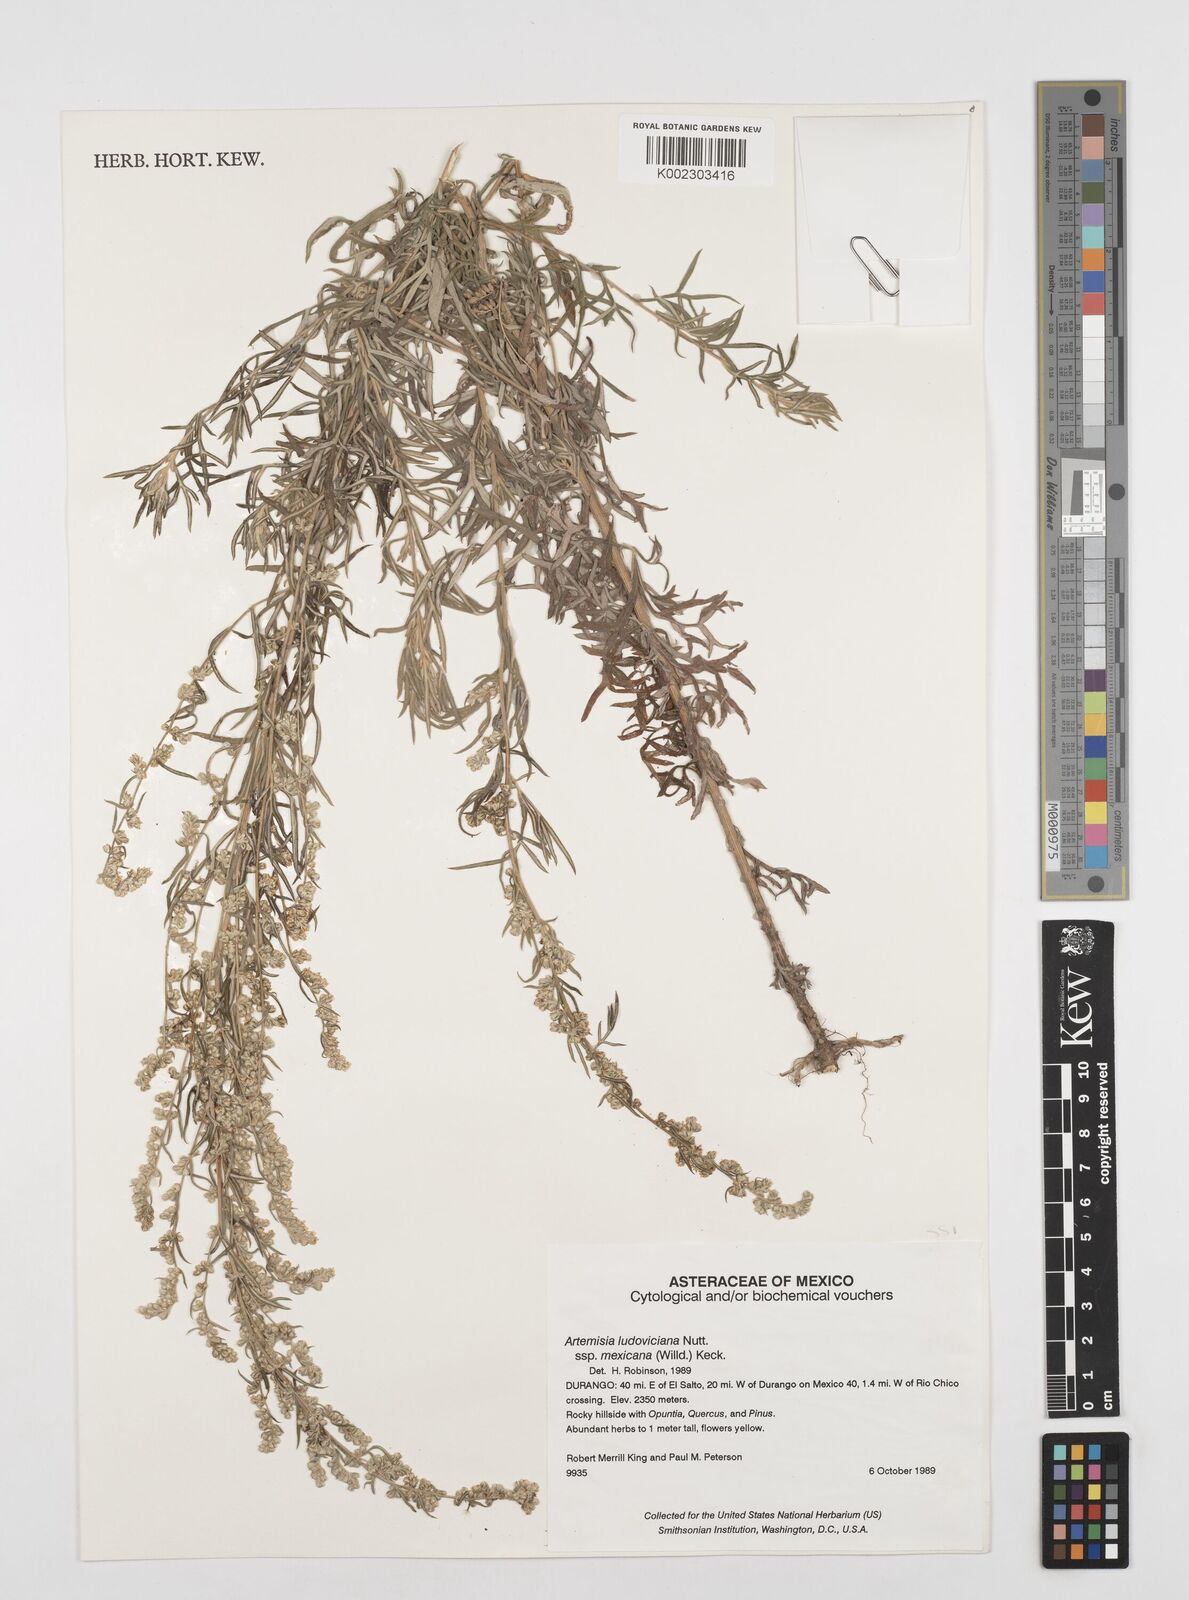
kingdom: Plantae
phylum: Tracheophyta
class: Magnoliopsida
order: Asterales
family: Asteraceae
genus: Artemisia
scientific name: Artemisia ludoviciana
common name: Western mugwort
